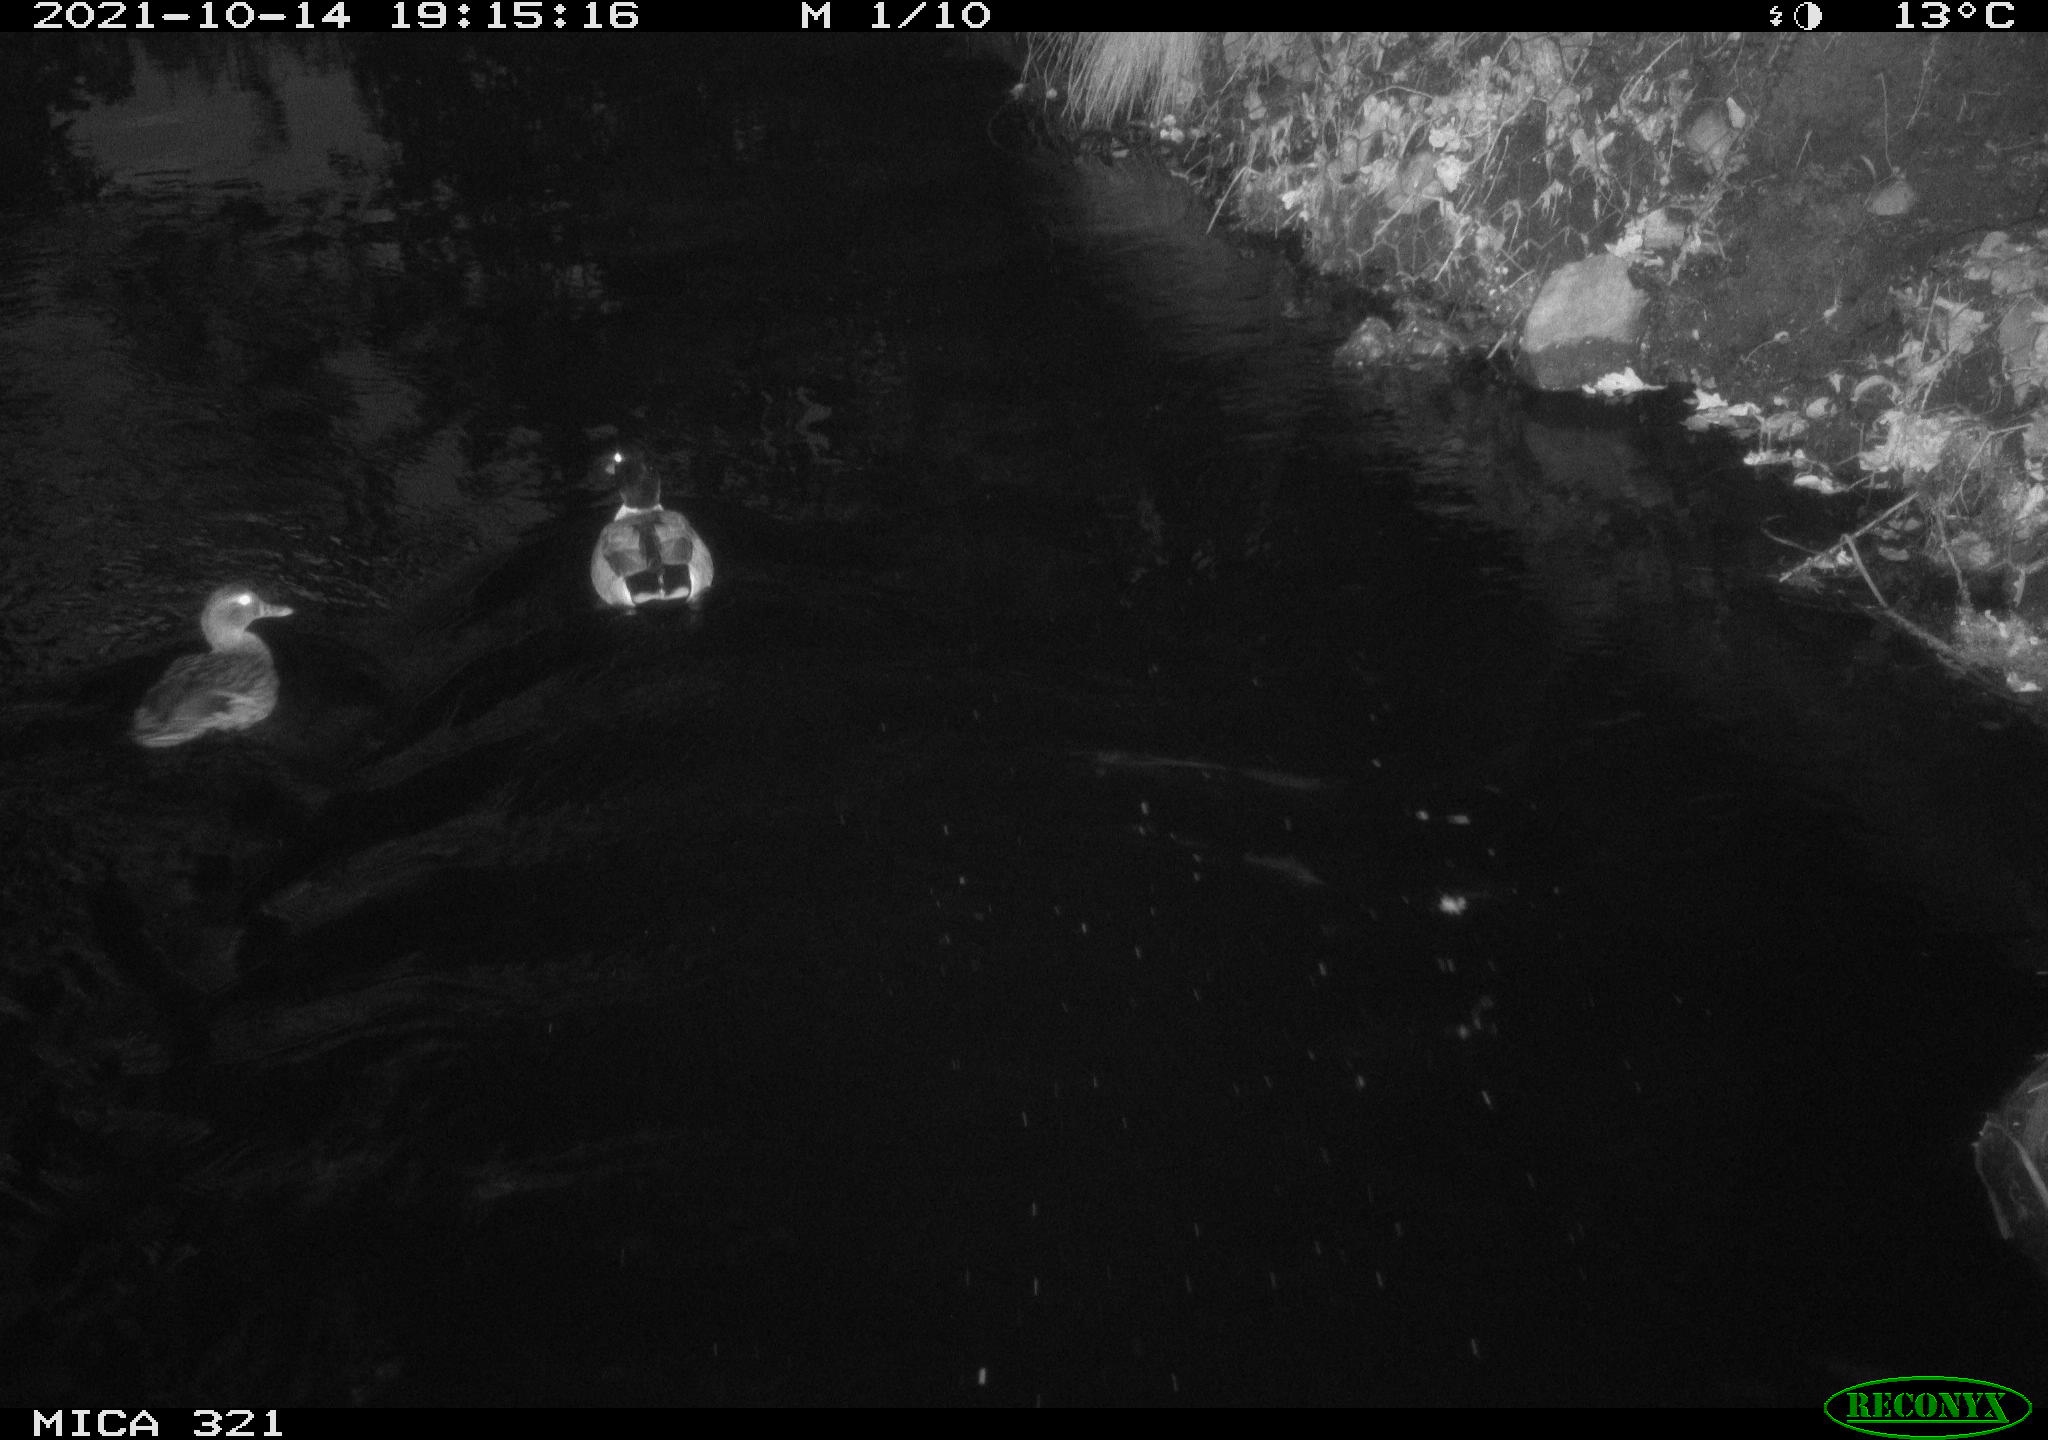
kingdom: Animalia
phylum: Chordata
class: Aves
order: Anseriformes
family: Anatidae
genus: Anas
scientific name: Anas platyrhynchos
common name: Mallard
